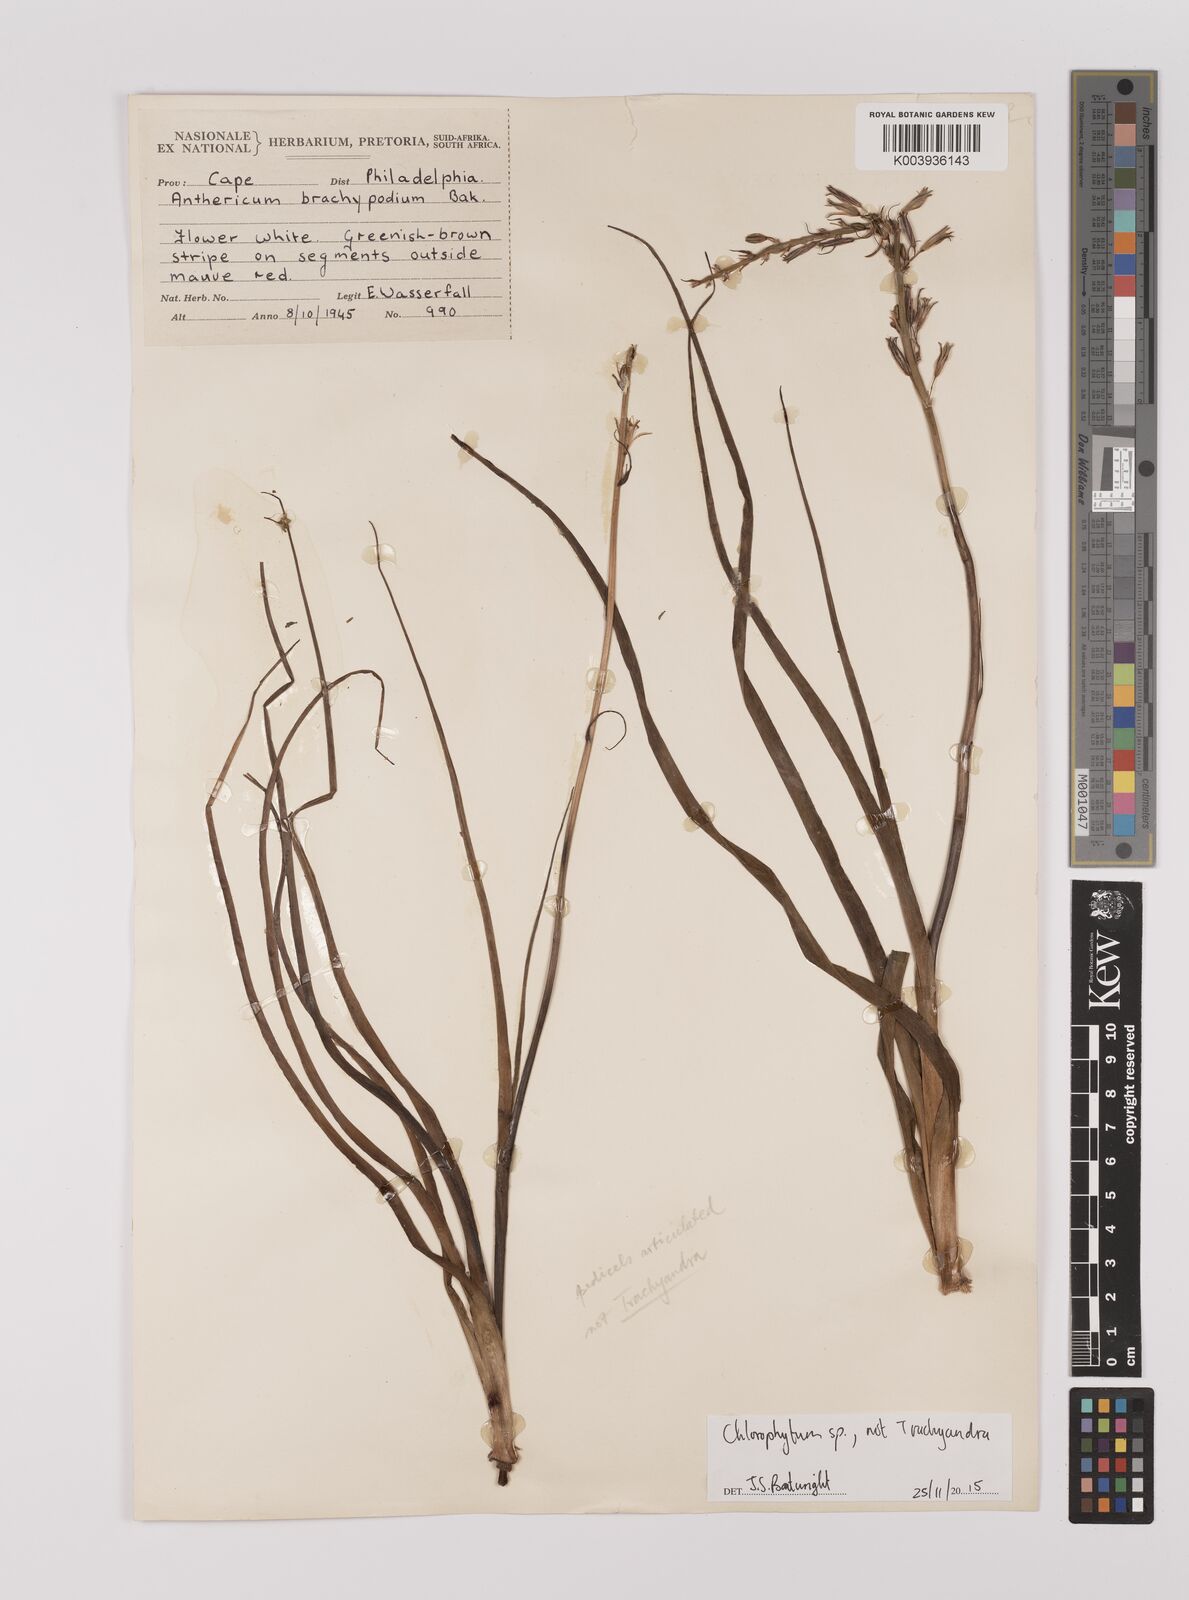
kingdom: Plantae
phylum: Tracheophyta
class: Liliopsida
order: Asparagales
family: Asparagaceae
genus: Chlorophytum
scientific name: Chlorophytum
